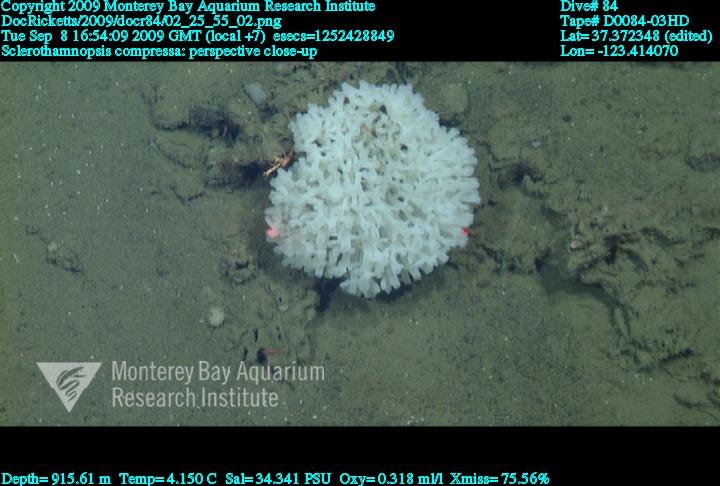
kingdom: Animalia
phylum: Porifera
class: Hexactinellida
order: Sceptrulophora
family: Tretodictyidae
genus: Sclerothamnopsis
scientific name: Sclerothamnopsis compressa
